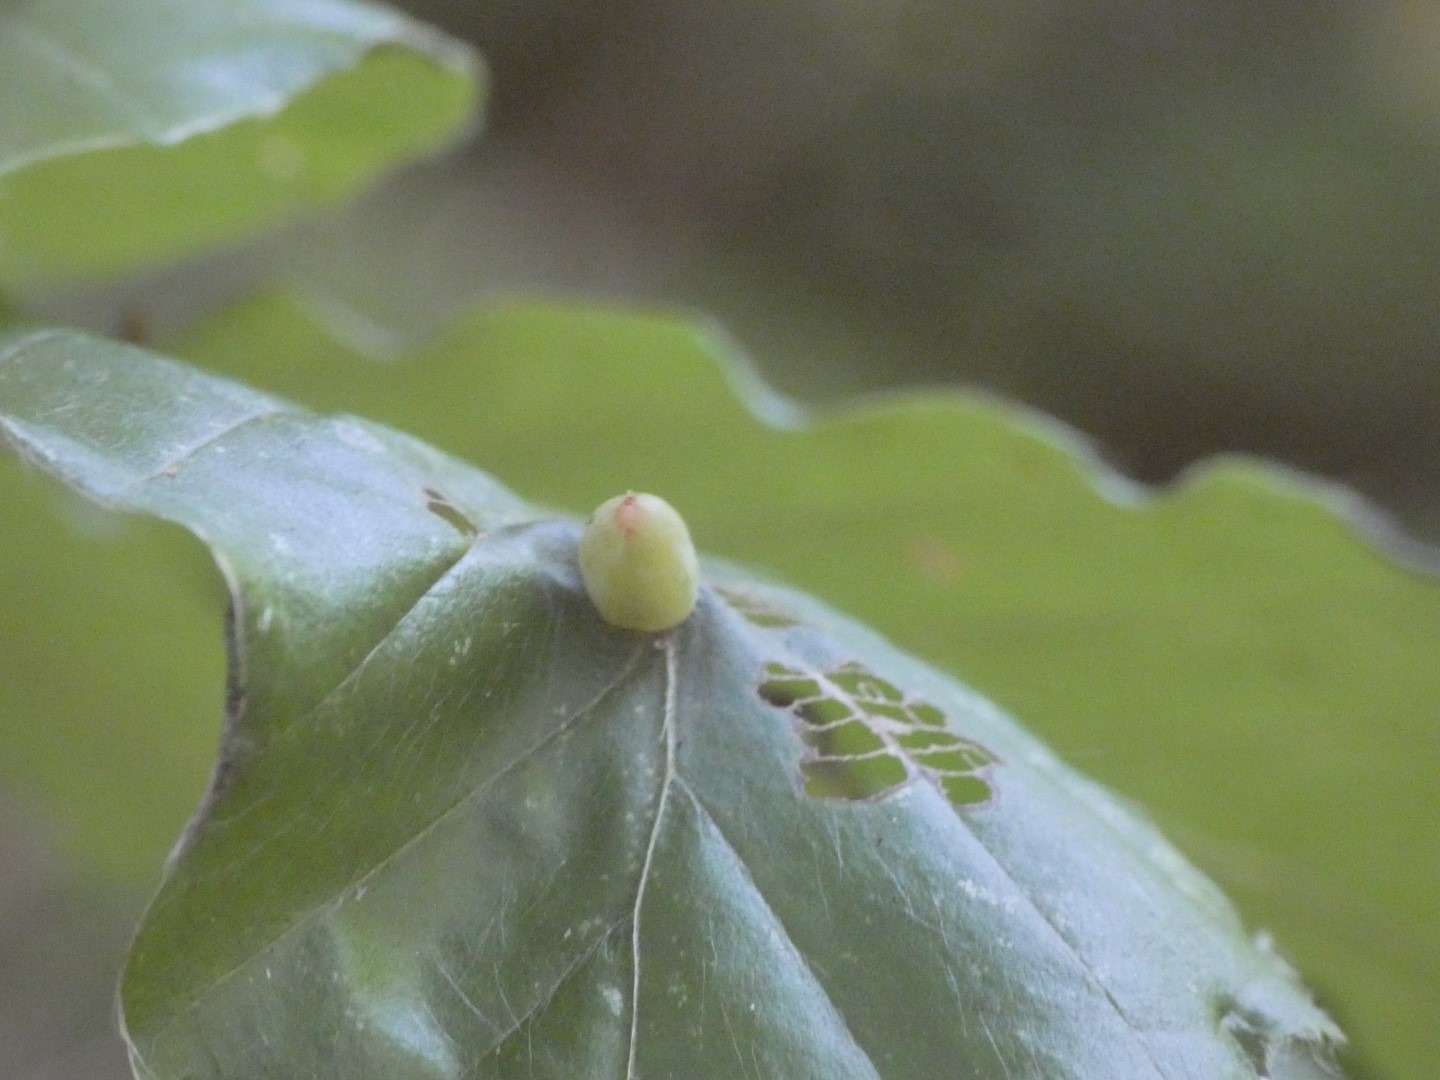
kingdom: Animalia
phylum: Arthropoda
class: Insecta
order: Diptera
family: Cecidomyiidae
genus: Mikiola
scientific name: Mikiola fagi
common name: Bøgegalmyg
